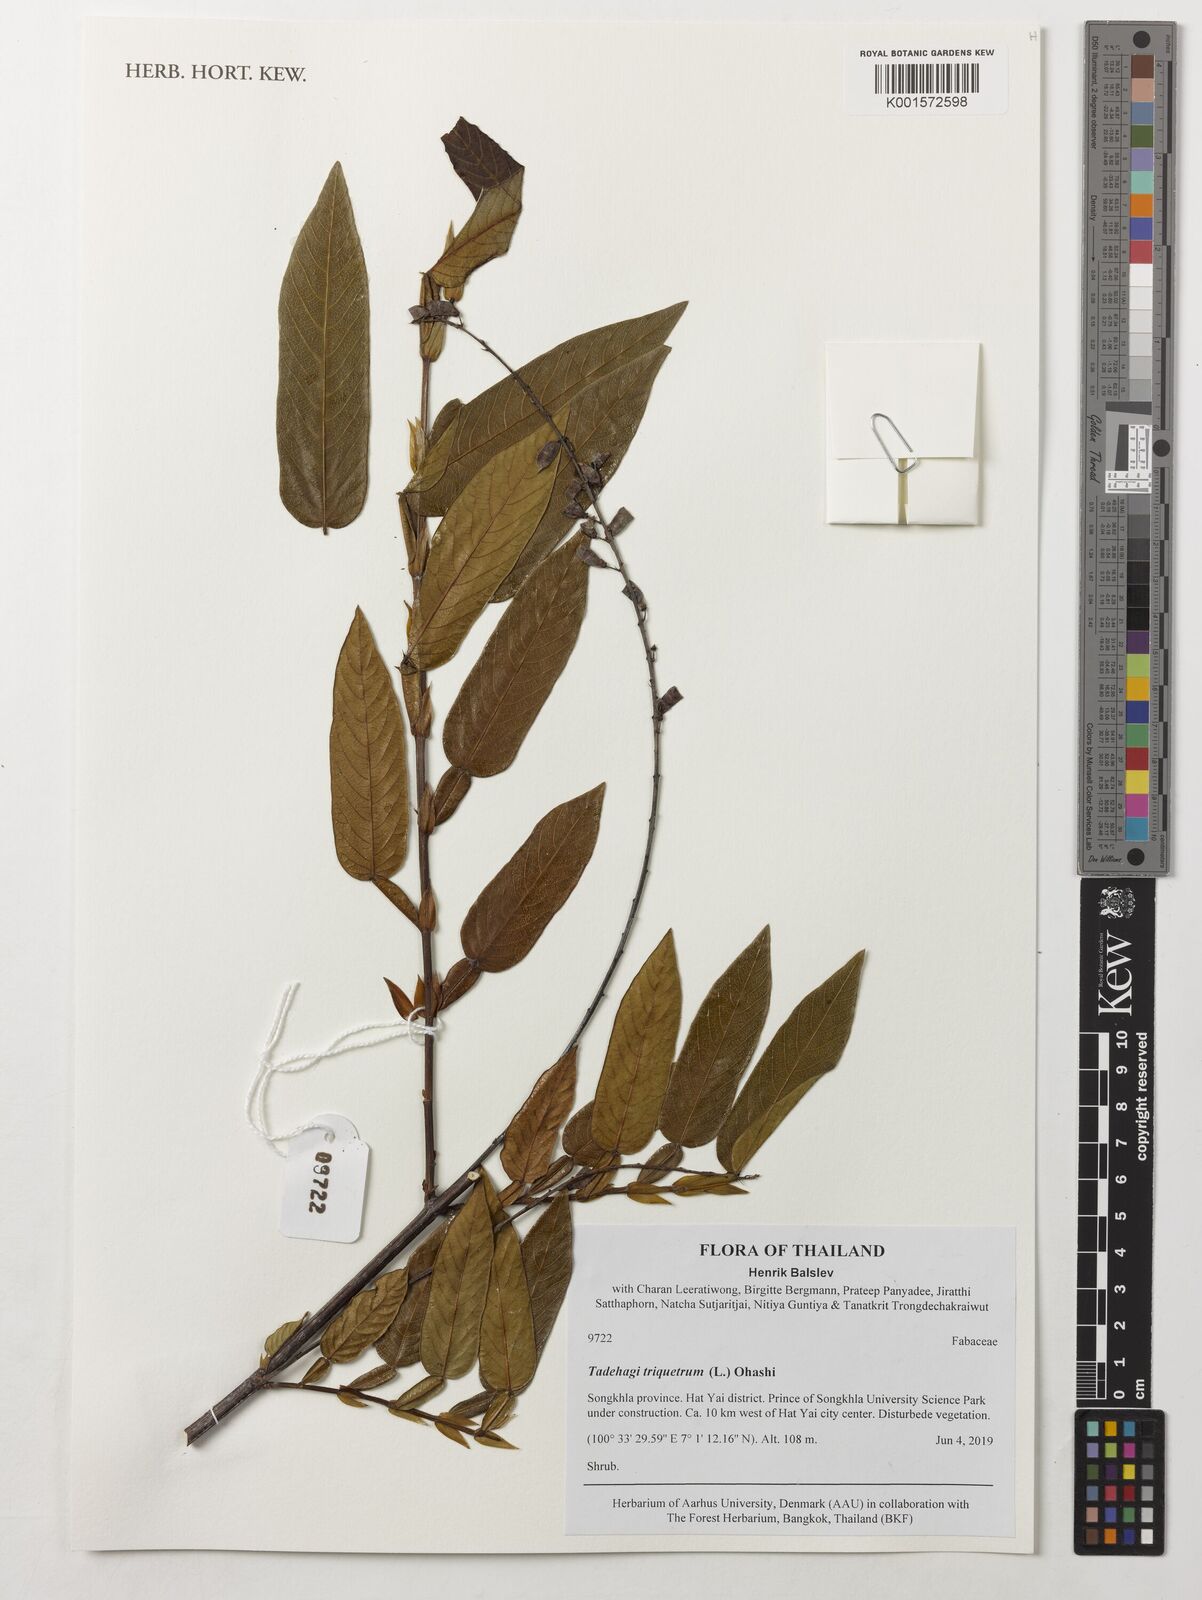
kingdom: Plantae
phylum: Tracheophyta
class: Magnoliopsida
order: Fabales
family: Fabaceae
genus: Tadehagi
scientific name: Tadehagi triquetrum
